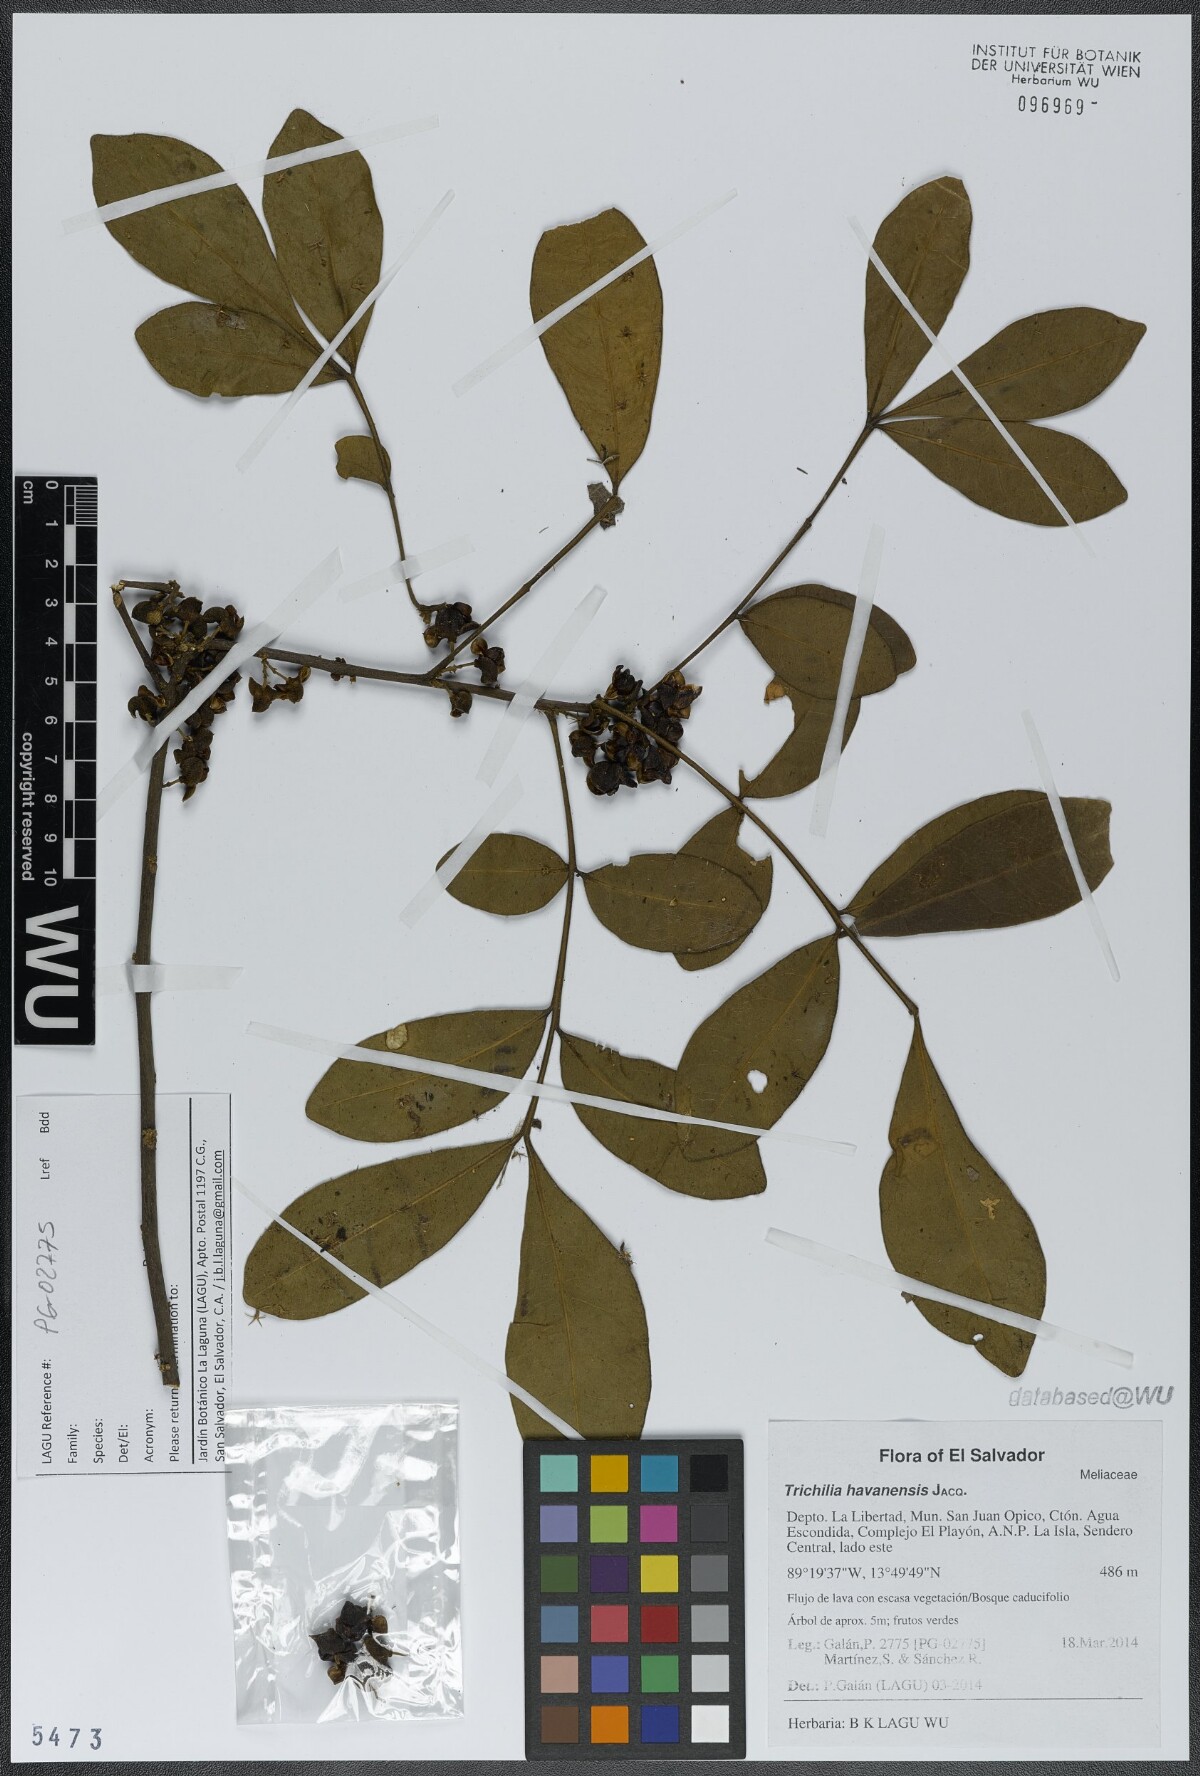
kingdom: Plantae
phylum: Tracheophyta
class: Magnoliopsida
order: Sapindales
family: Meliaceae
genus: Trichilia
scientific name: Trichilia havanensis
